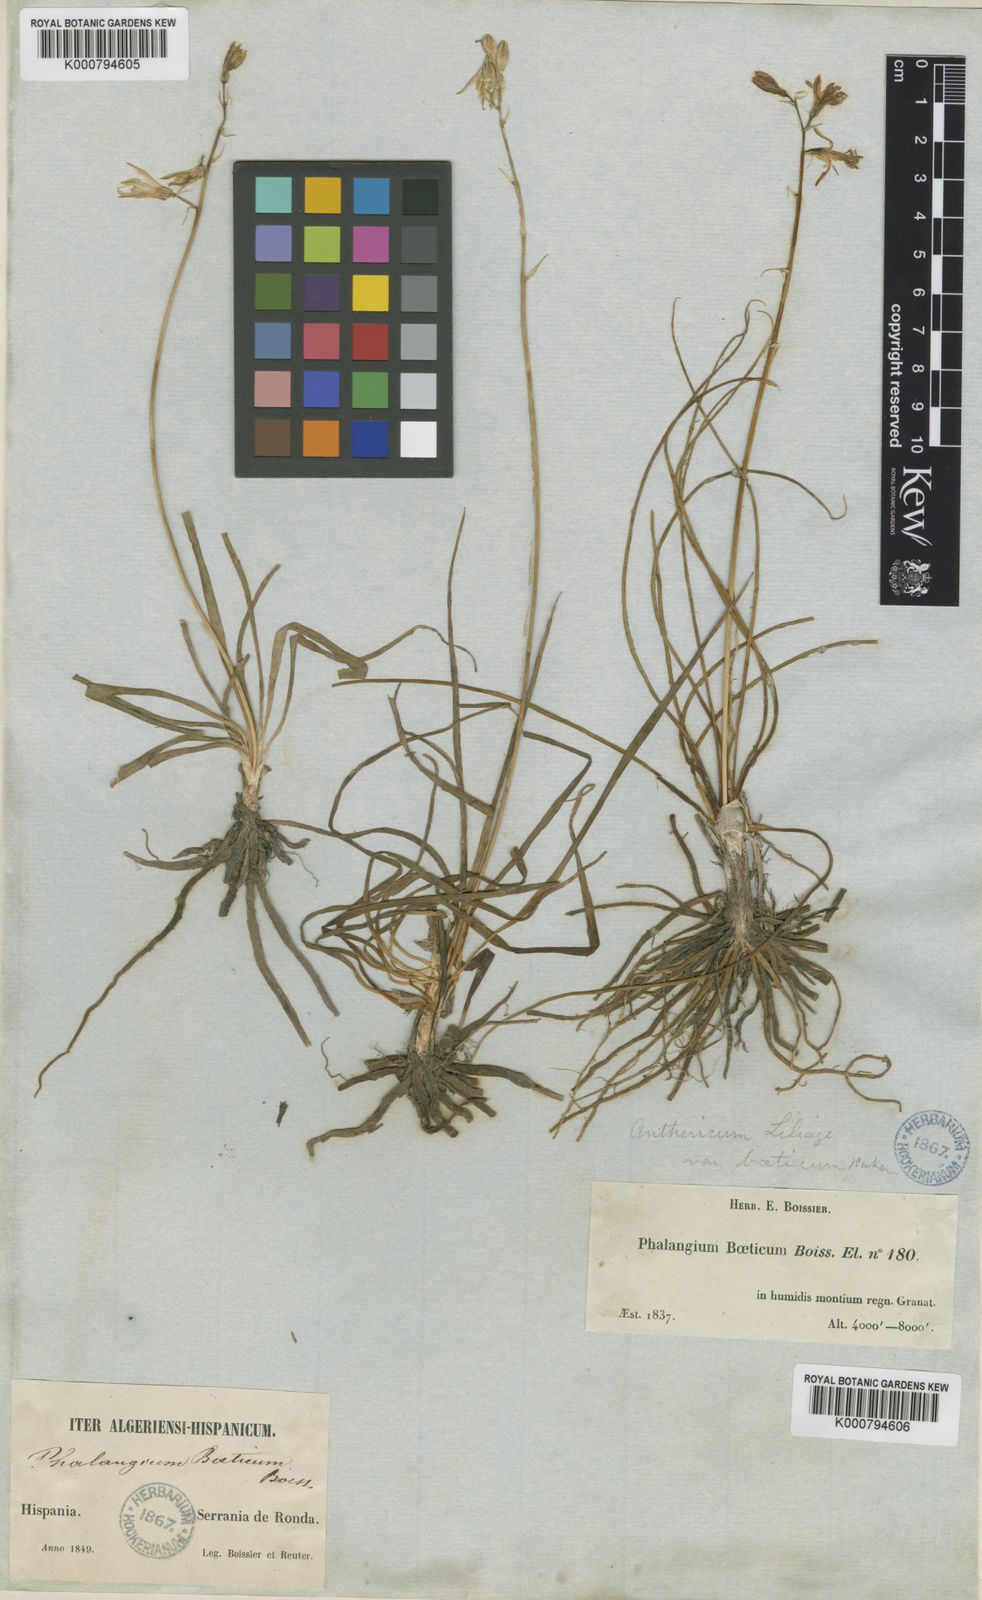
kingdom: Plantae
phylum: Tracheophyta
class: Liliopsida
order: Asparagales
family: Asparagaceae
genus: Anthericum
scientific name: Anthericum liliago
